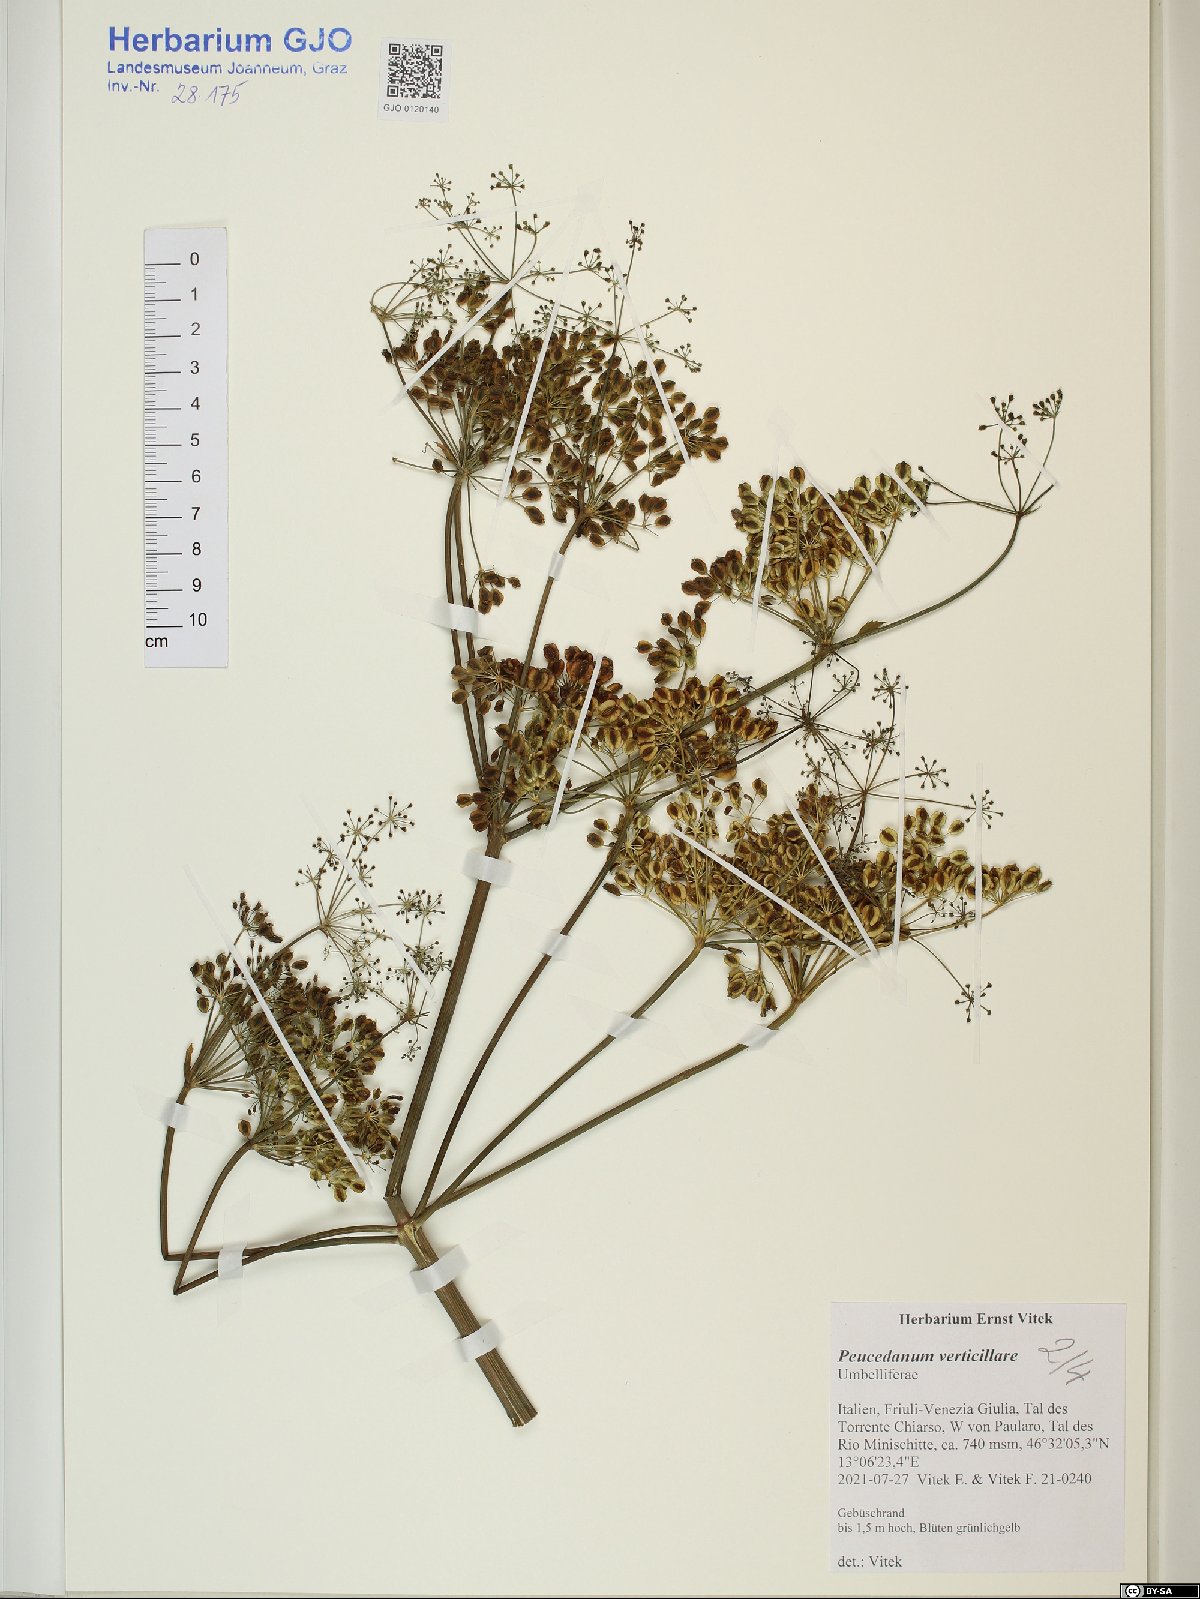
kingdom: Plantae
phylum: Tracheophyta
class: Magnoliopsida
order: Apiales
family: Apiaceae
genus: Tommasinia
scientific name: Tommasinia altissima
